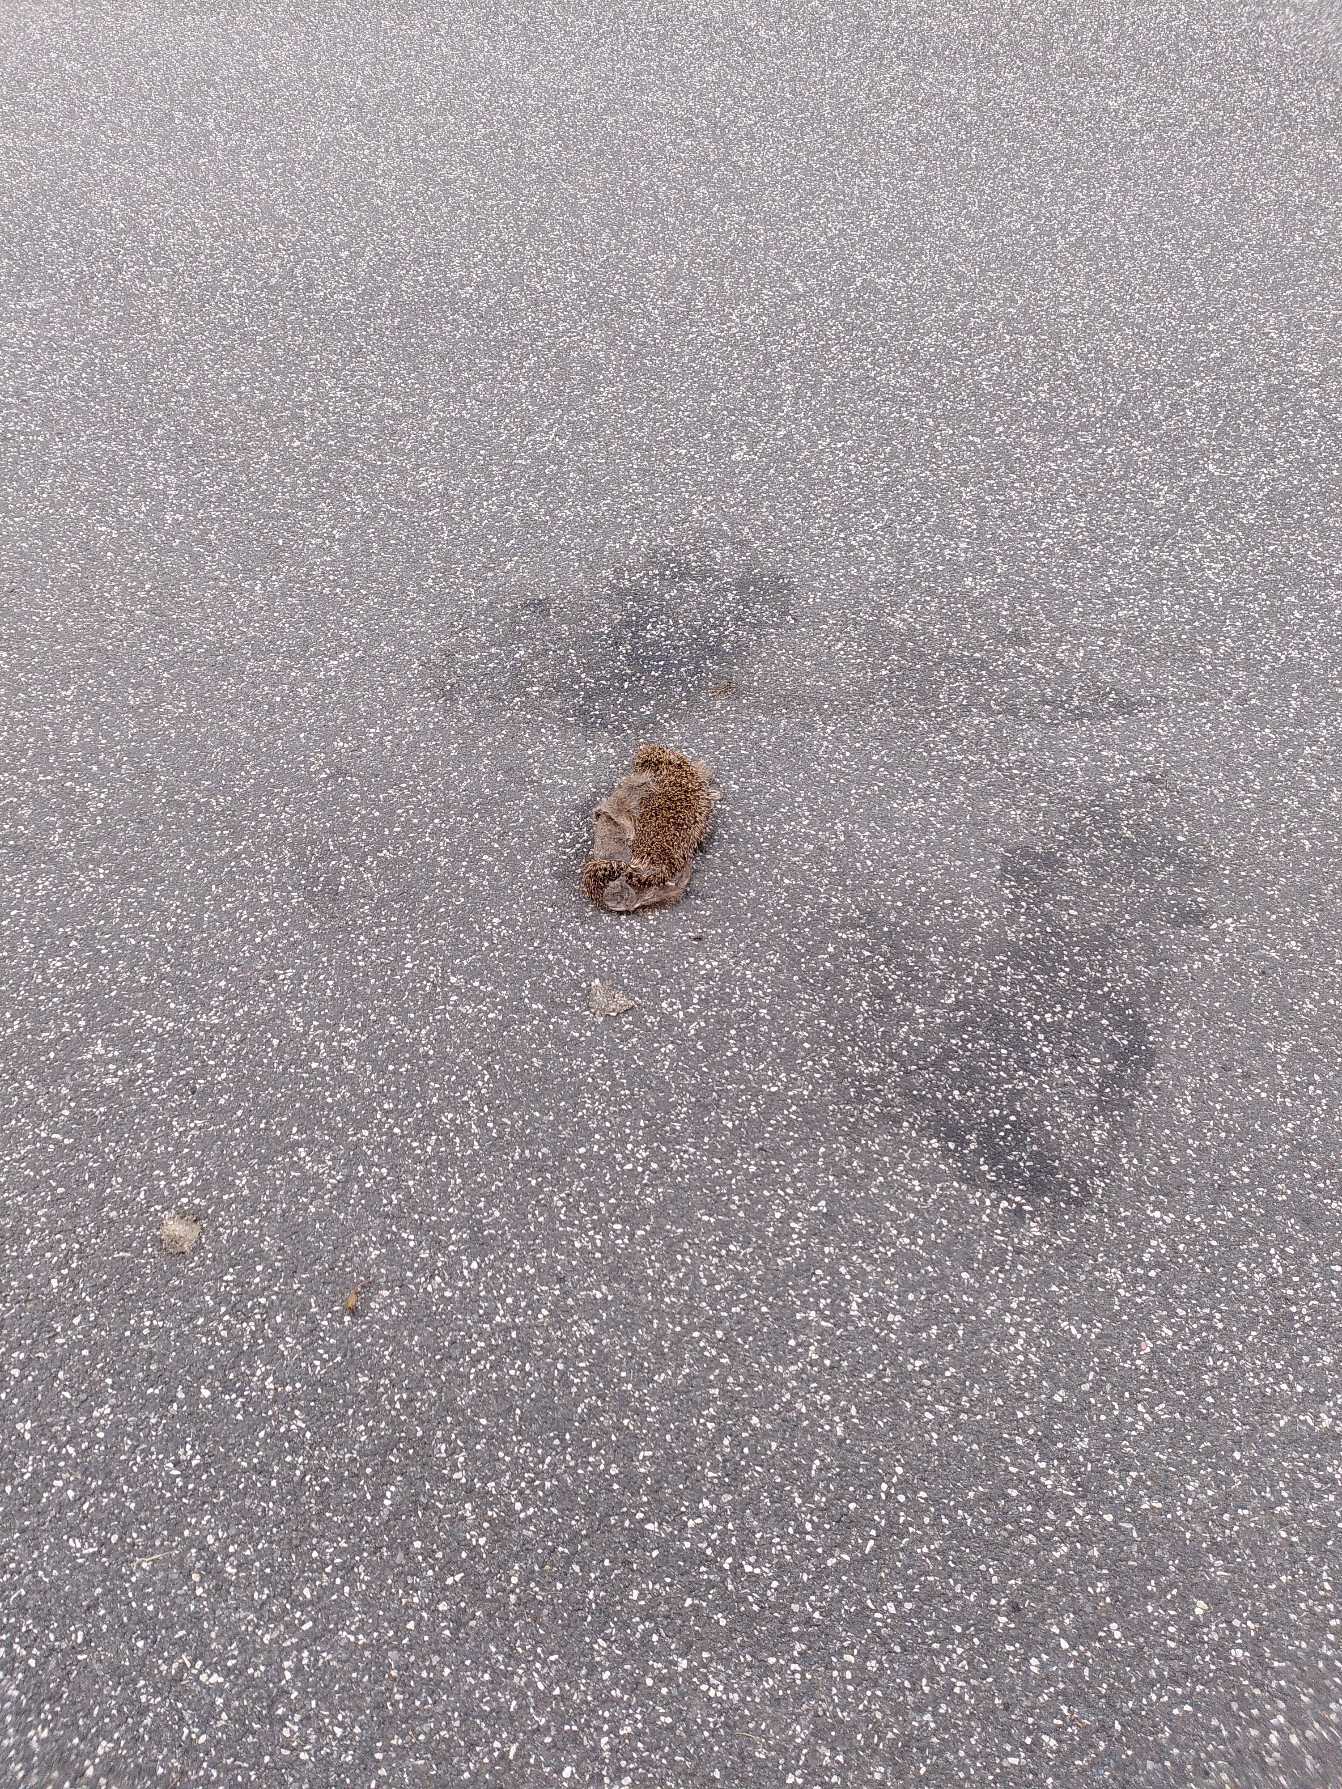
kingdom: Animalia
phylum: Chordata
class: Mammalia
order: Erinaceomorpha
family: Erinaceidae
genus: Erinaceus
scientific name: Erinaceus europaeus
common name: Pindsvin
